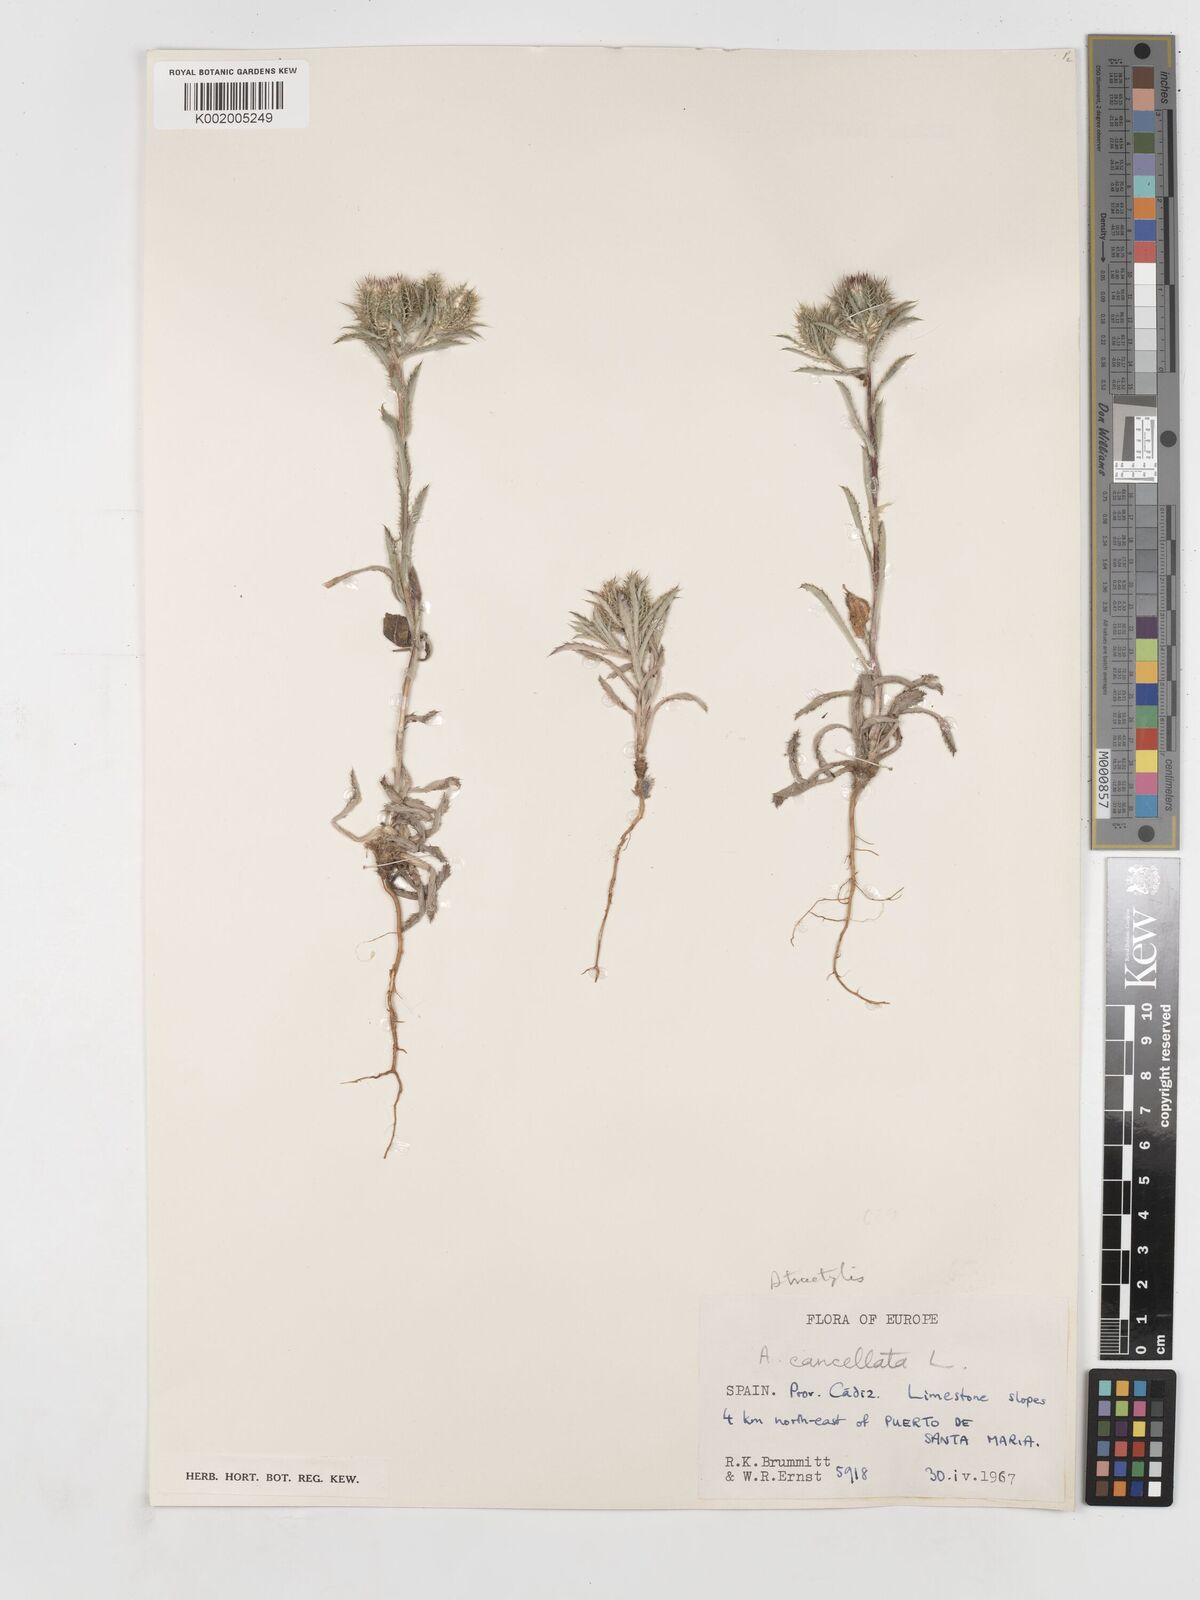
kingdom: Plantae
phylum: Tracheophyta
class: Magnoliopsida
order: Asterales
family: Asteraceae
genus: Atractylis
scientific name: Atractylis cancellata
